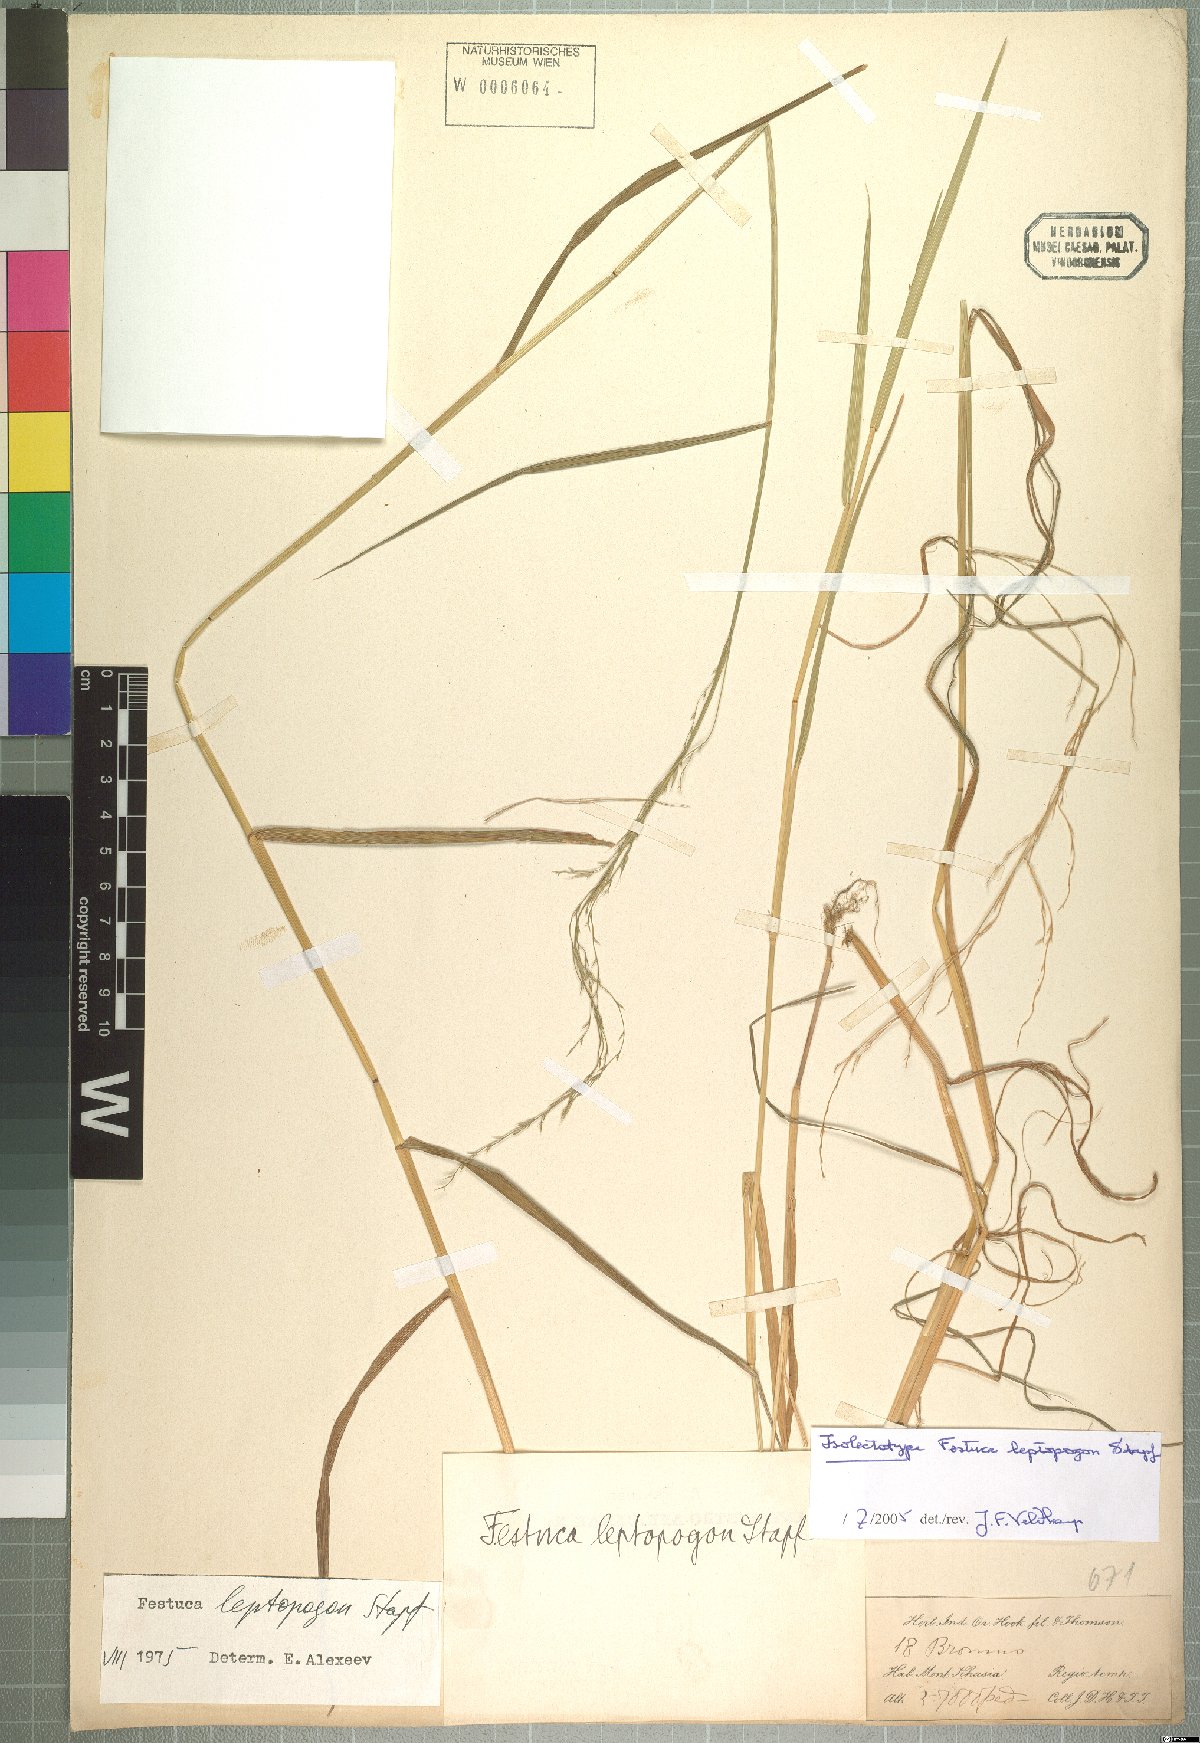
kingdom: Plantae
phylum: Tracheophyta
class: Liliopsida
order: Poales
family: Poaceae
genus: Festuca
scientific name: Festuca leptopogon
